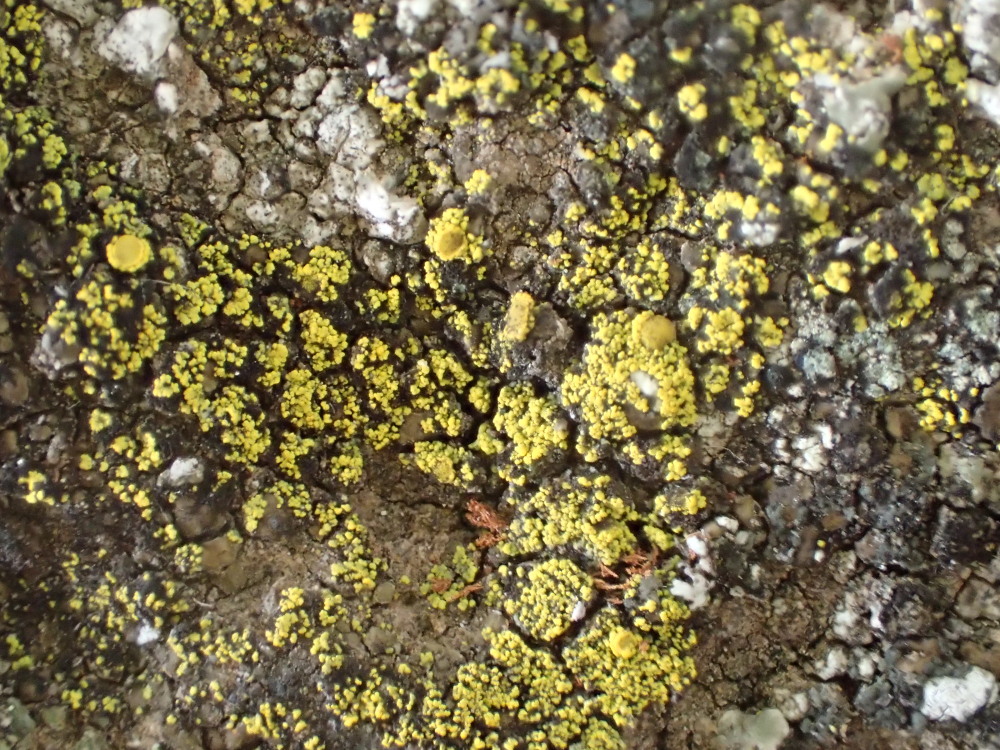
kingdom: Fungi
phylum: Ascomycota
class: Candelariomycetes
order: Candelariales
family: Candelariaceae
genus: Candelariella
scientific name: Candelariella vitellina
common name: almindelig æggeblommelav
